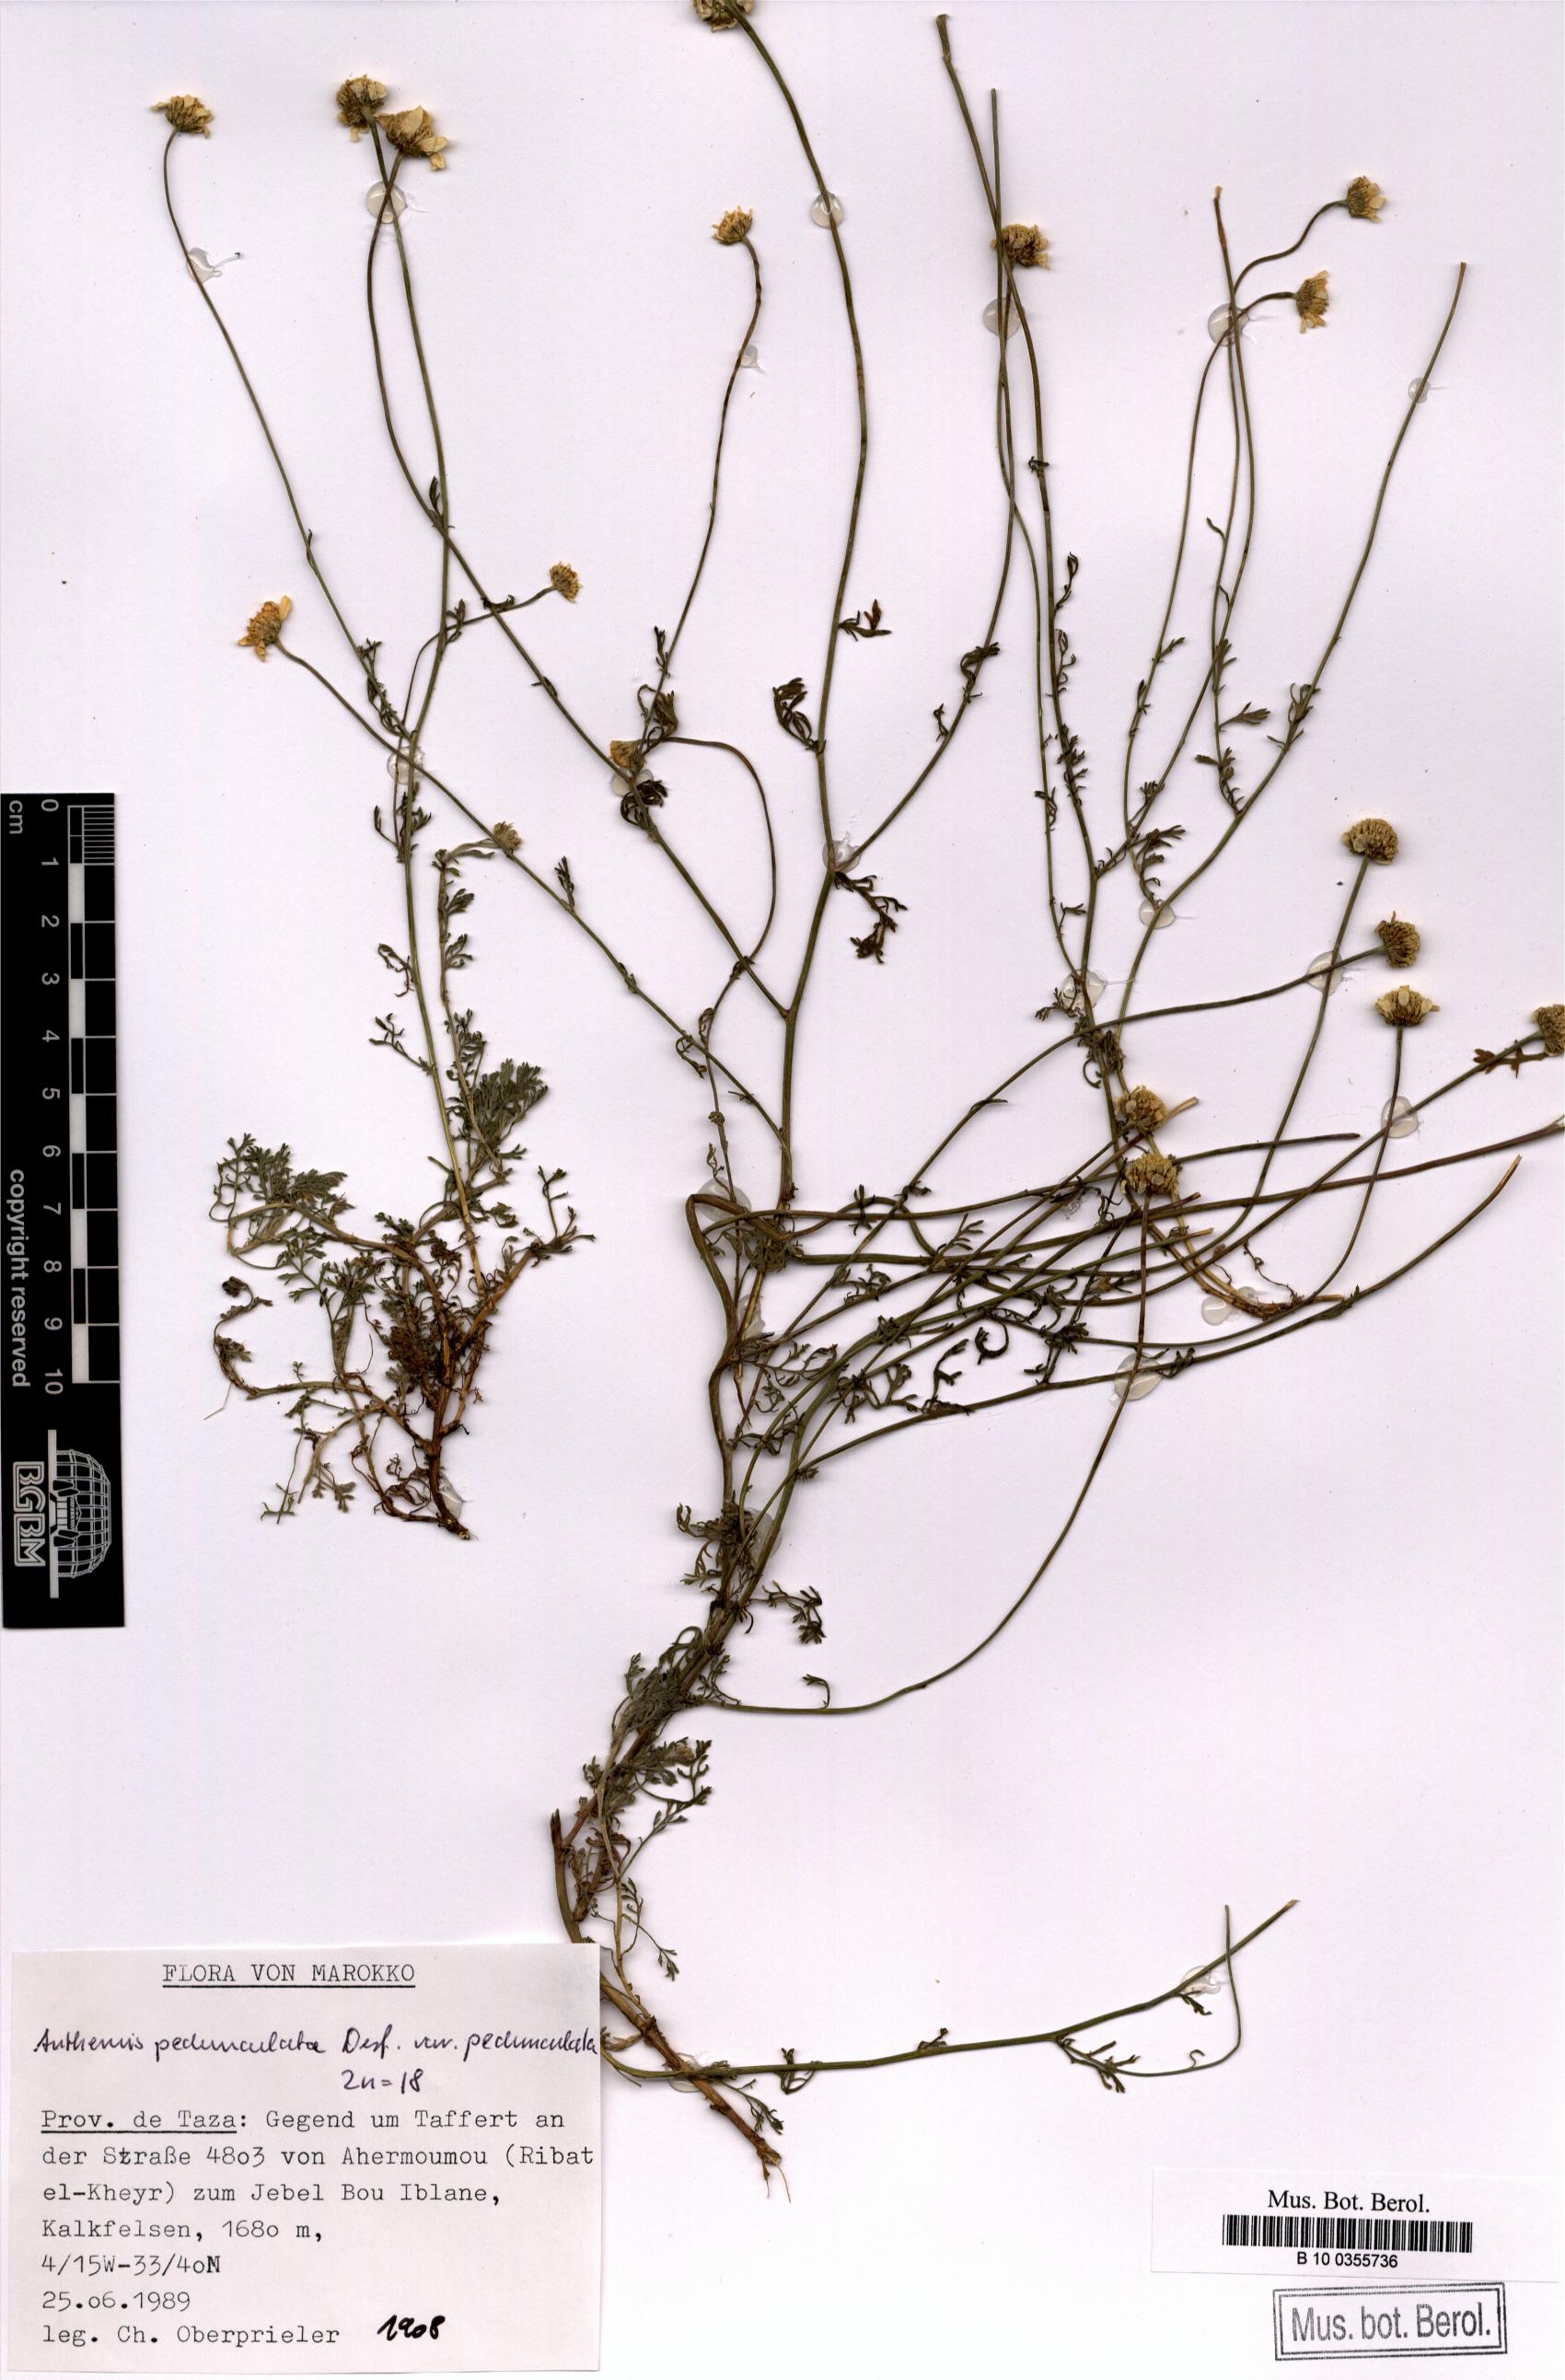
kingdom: Plantae
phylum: Tracheophyta
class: Magnoliopsida
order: Asterales
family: Asteraceae
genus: Anthemis
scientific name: Anthemis pedunculata
